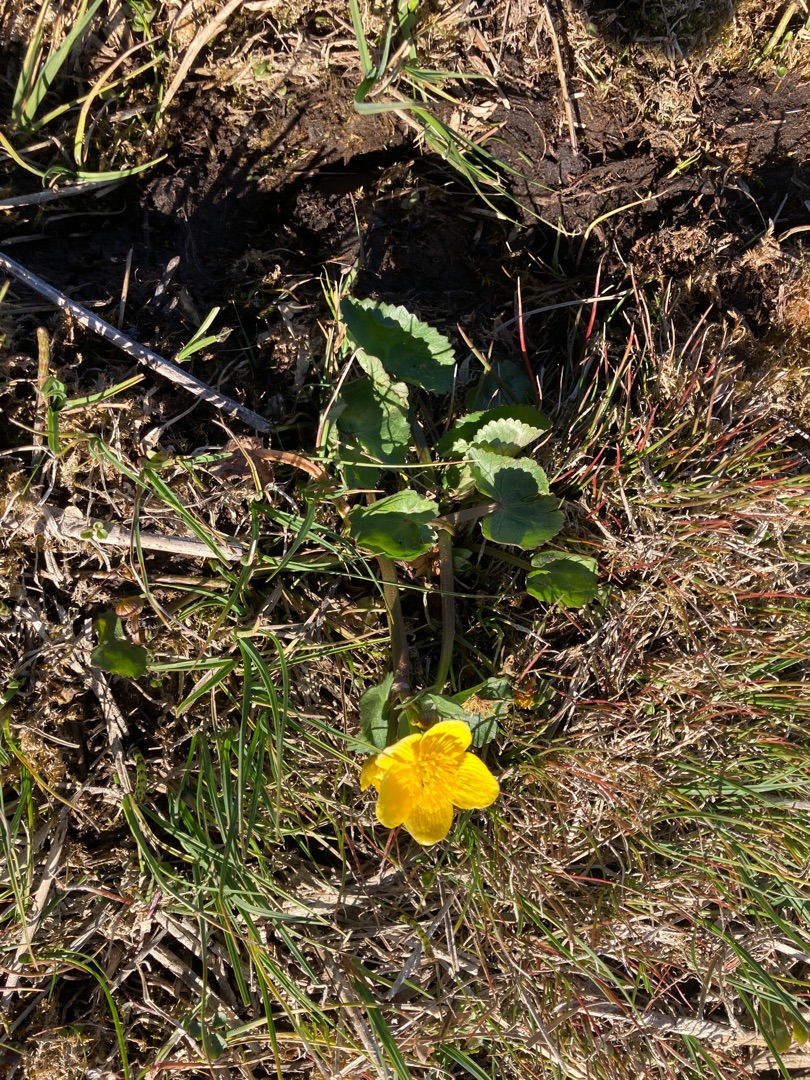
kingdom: Plantae
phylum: Tracheophyta
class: Magnoliopsida
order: Ranunculales
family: Ranunculaceae
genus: Caltha
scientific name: Caltha palustris
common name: Eng-kabbeleje
